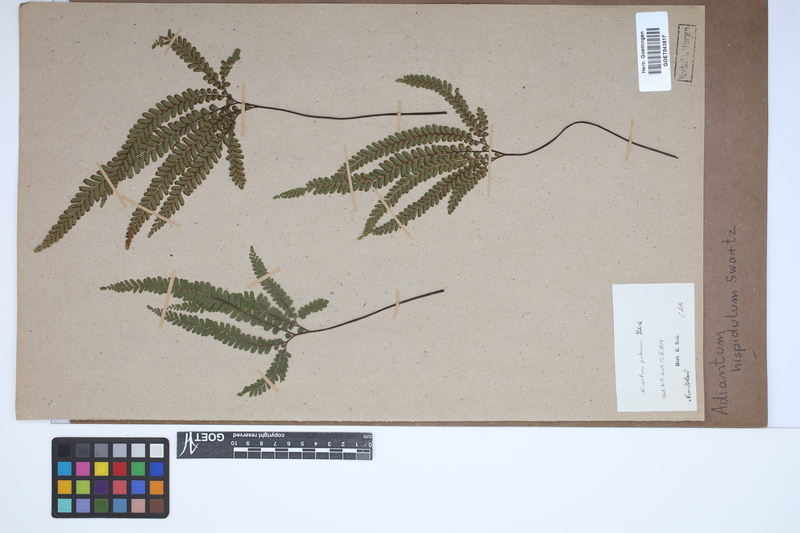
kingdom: Plantae
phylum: Tracheophyta
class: Polypodiopsida
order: Polypodiales
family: Pteridaceae
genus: Adiantum
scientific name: Adiantum hispidulum
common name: Rough maidenhair
